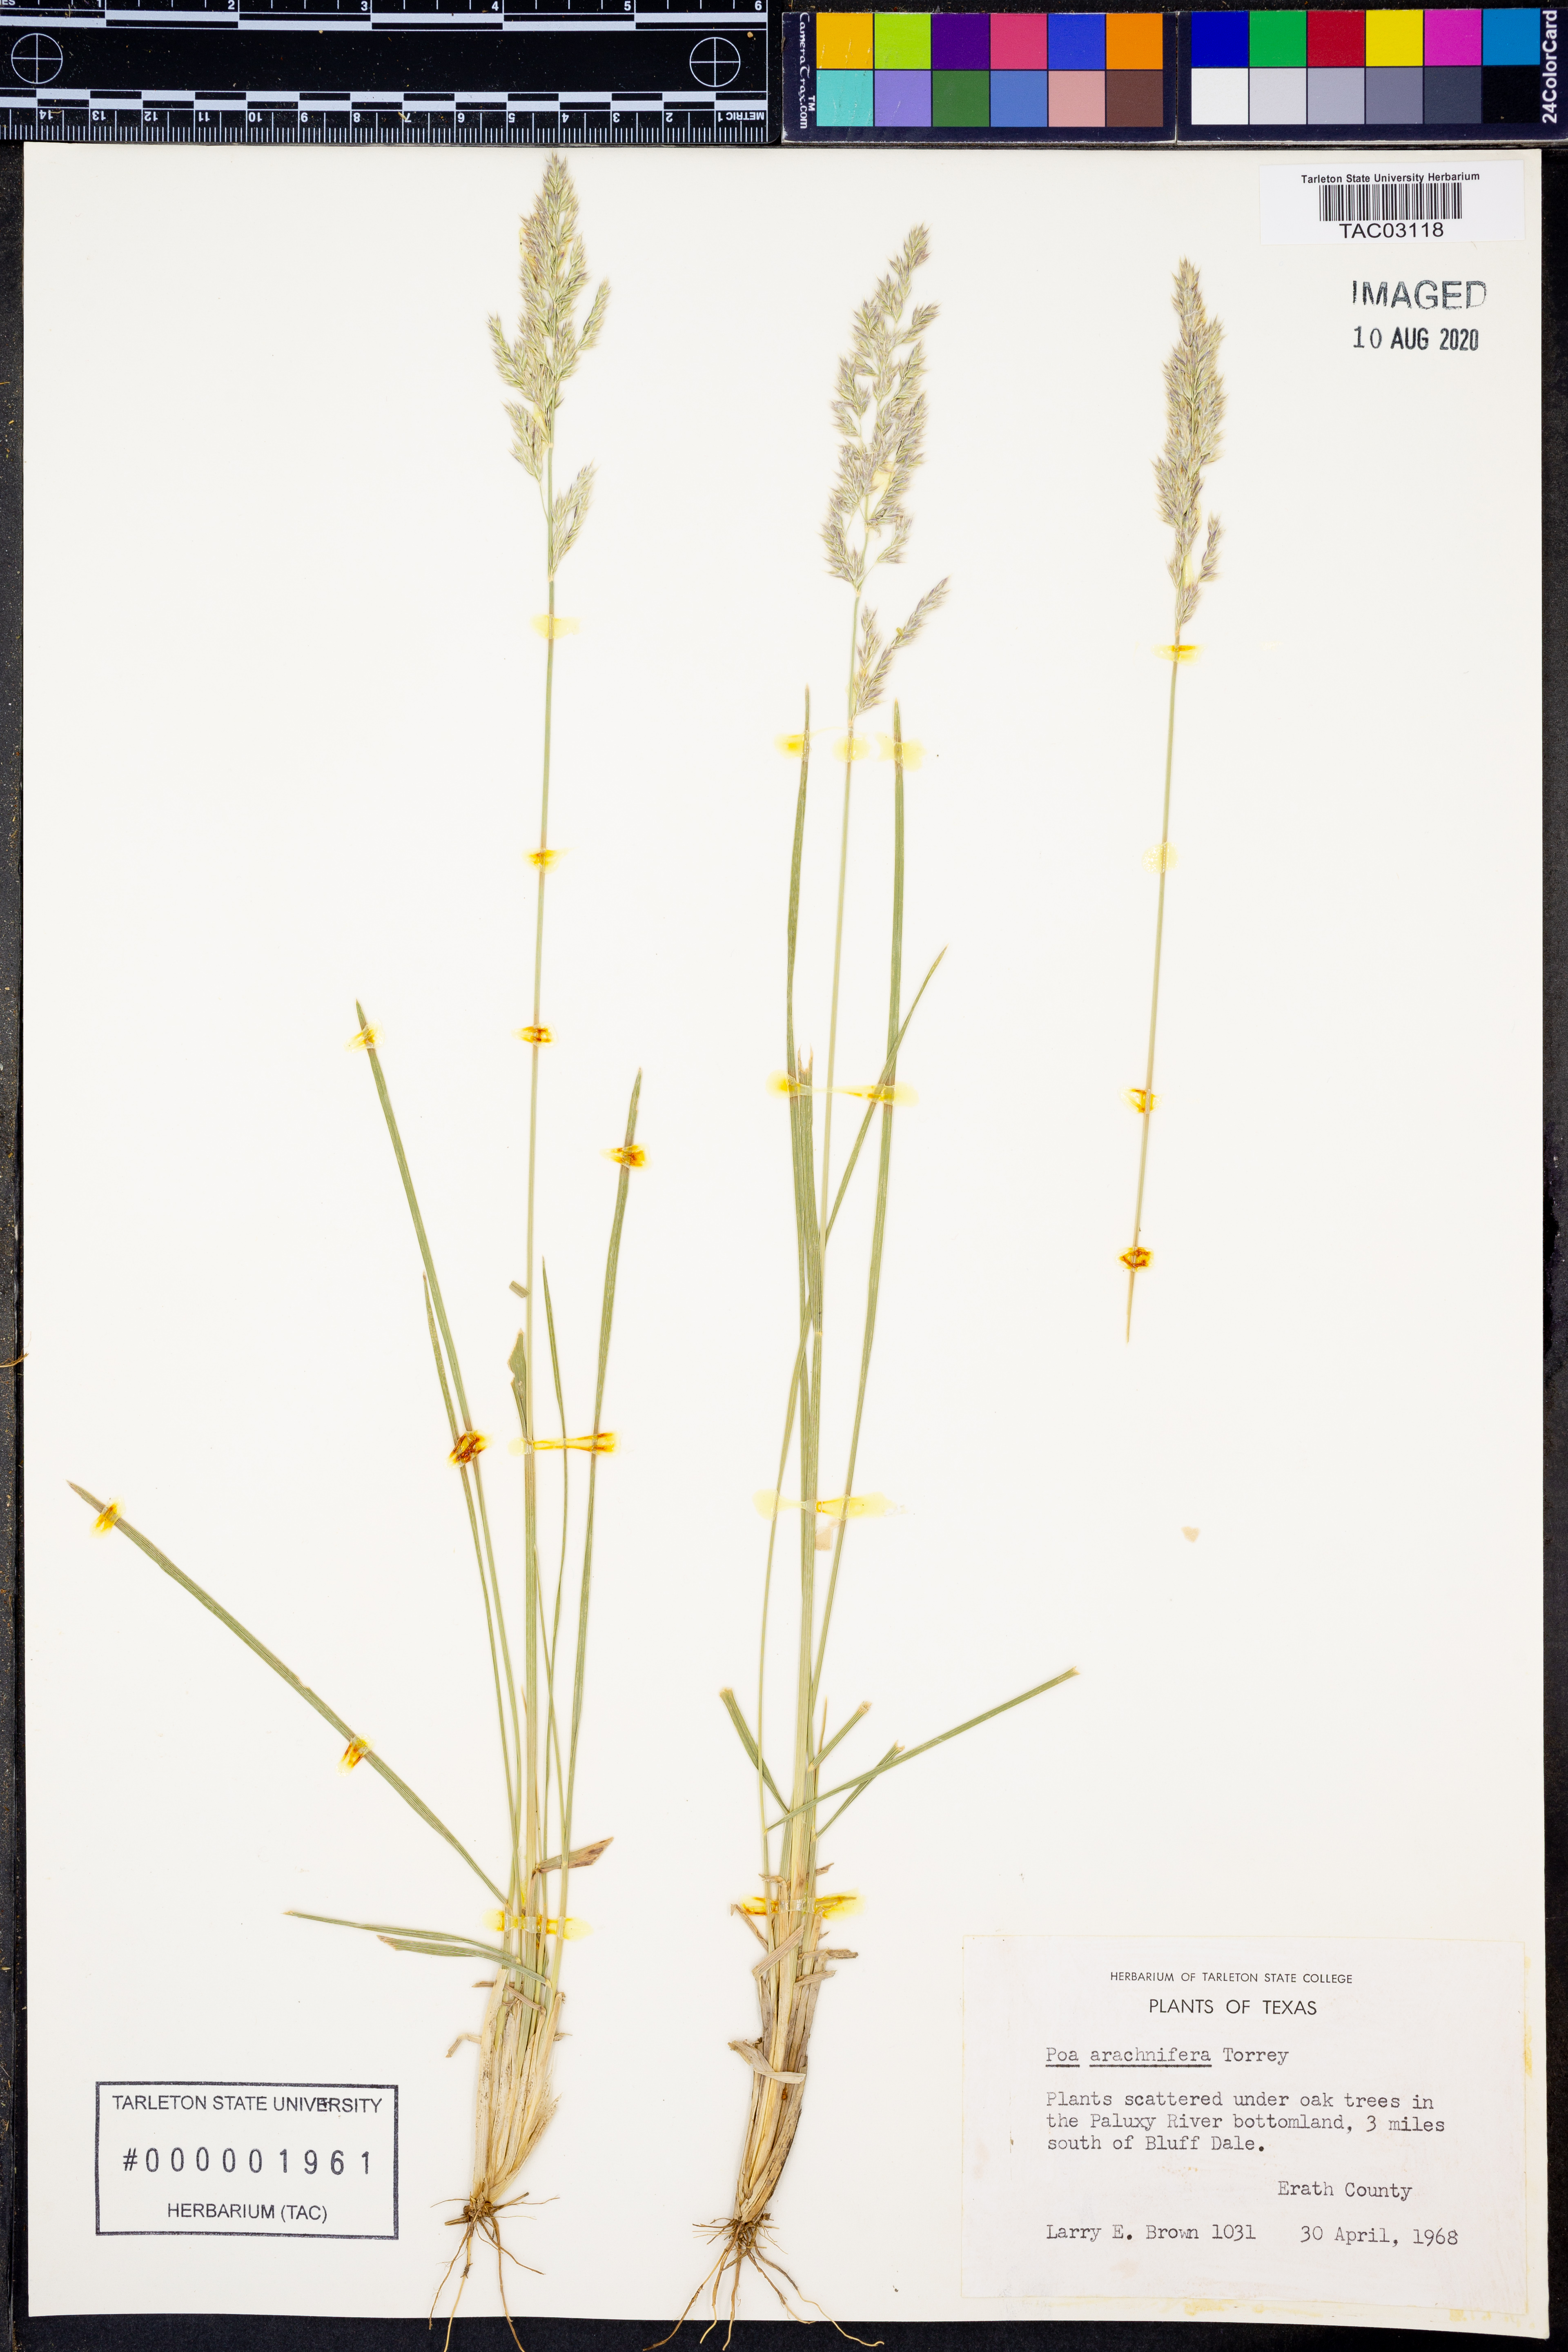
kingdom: Plantae
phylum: Tracheophyta
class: Liliopsida
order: Poales
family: Poaceae
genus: Poa
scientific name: Poa arachnifera
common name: Texas bluegrass
